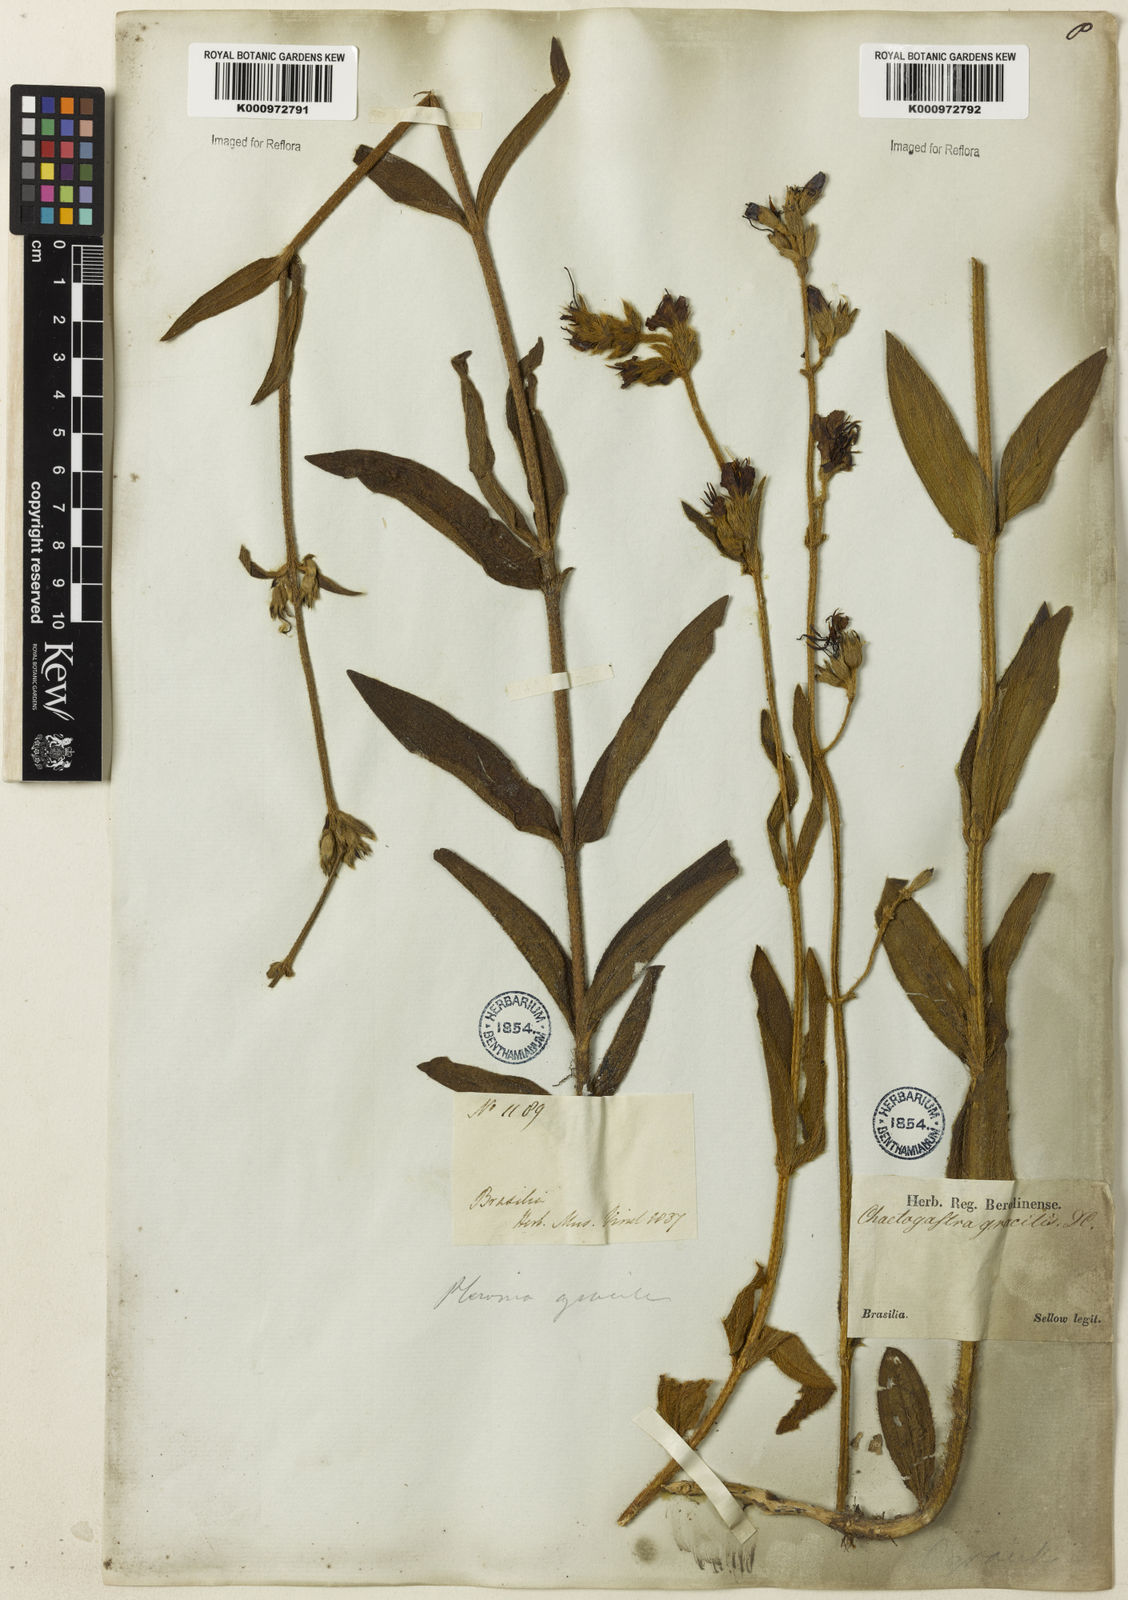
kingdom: Plantae
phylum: Tracheophyta
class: Magnoliopsida
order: Myrtales
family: Melastomataceae
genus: Chaetogastra
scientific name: Chaetogastra gracilis
